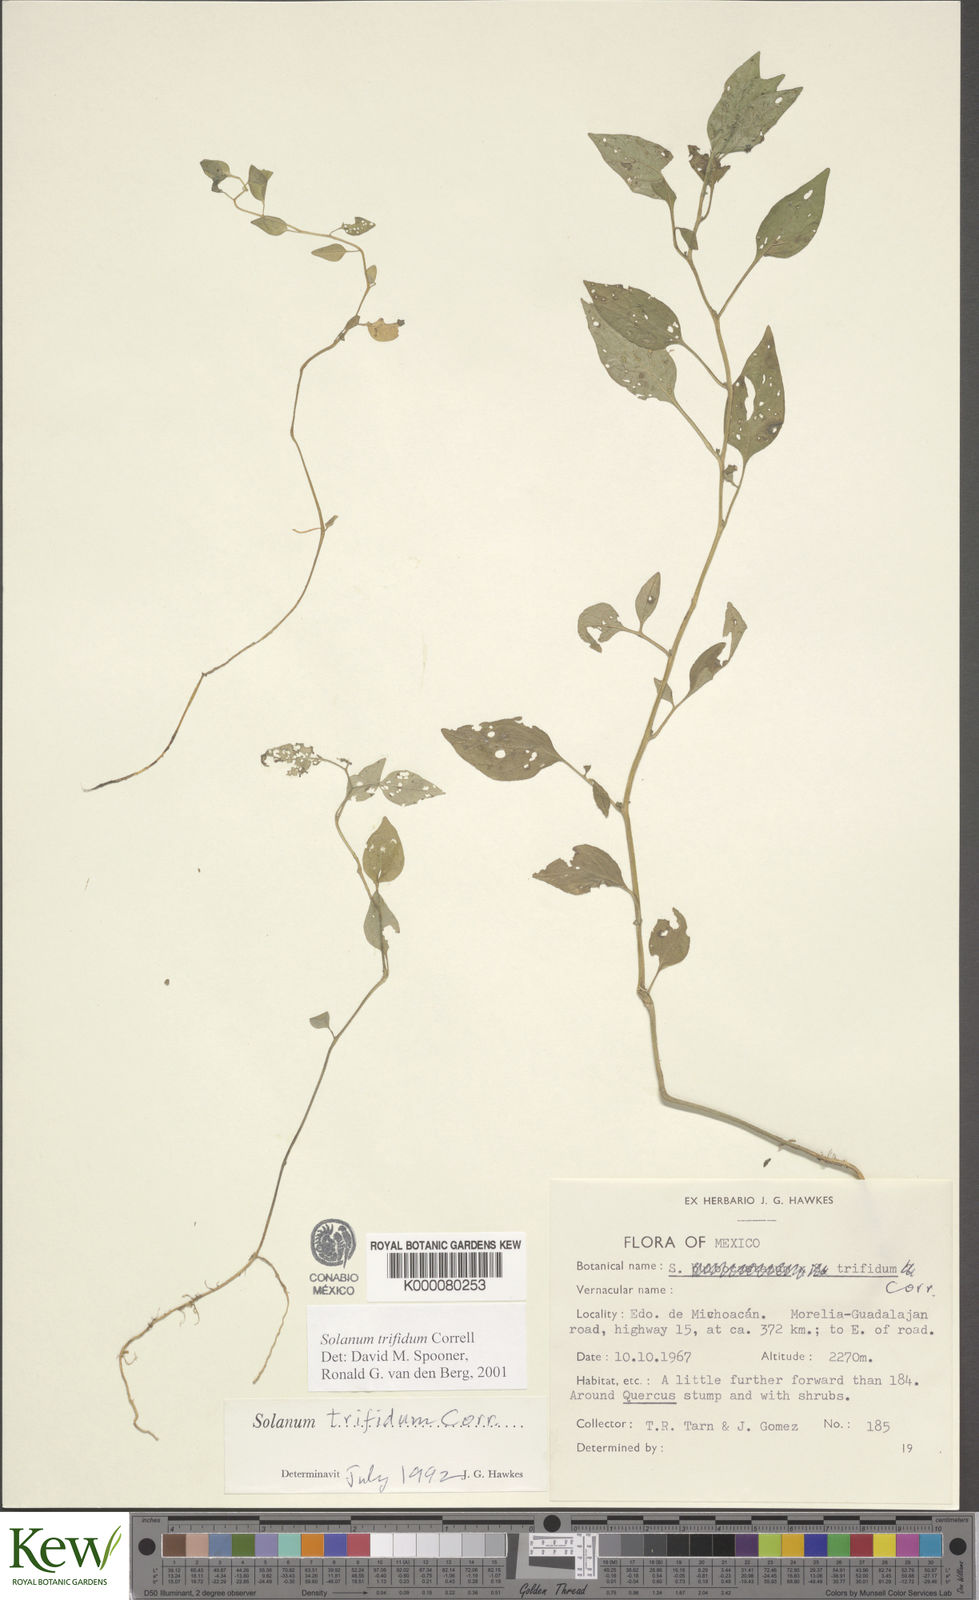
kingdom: Plantae
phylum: Tracheophyta
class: Magnoliopsida
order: Solanales
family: Solanaceae
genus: Solanum
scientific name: Solanum trifidum
